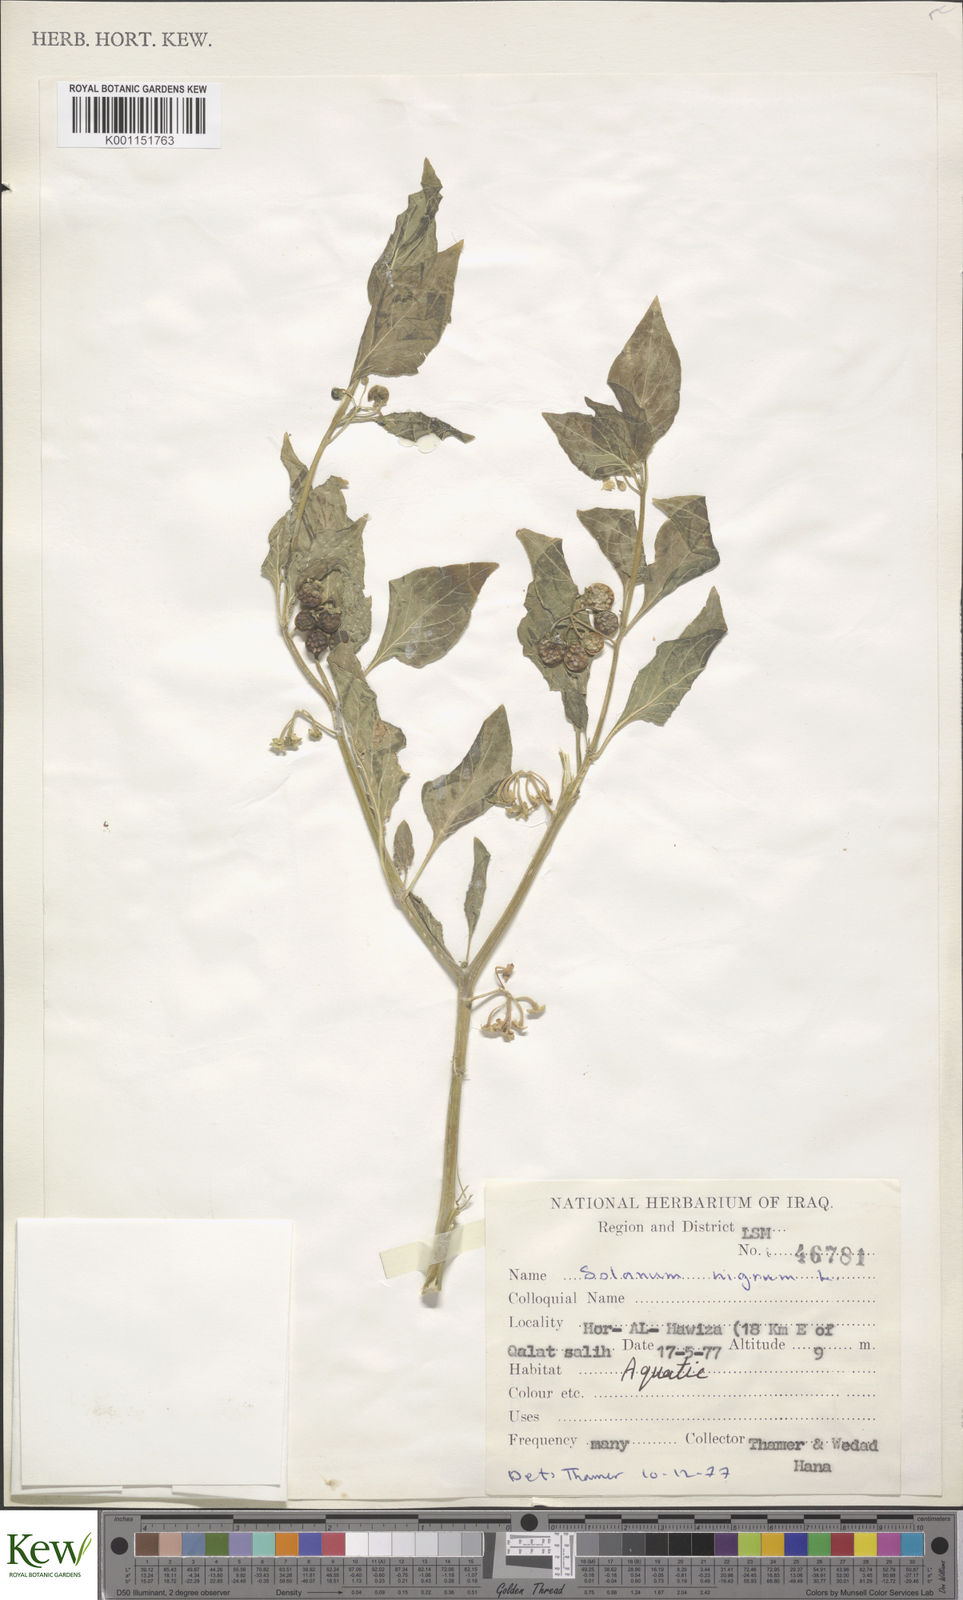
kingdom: Plantae
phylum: Tracheophyta
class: Magnoliopsida
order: Solanales
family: Solanaceae
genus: Solanum
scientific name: Solanum nigrum
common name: Black nightshade
